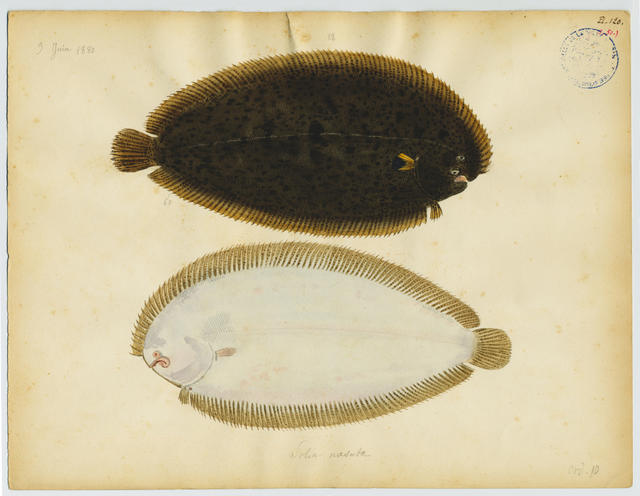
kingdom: Animalia
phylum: Chordata
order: Pleuronectiformes
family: Soleidae
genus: Synapturichthys
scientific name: Synapturichthys kleinii
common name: Klein's sole
